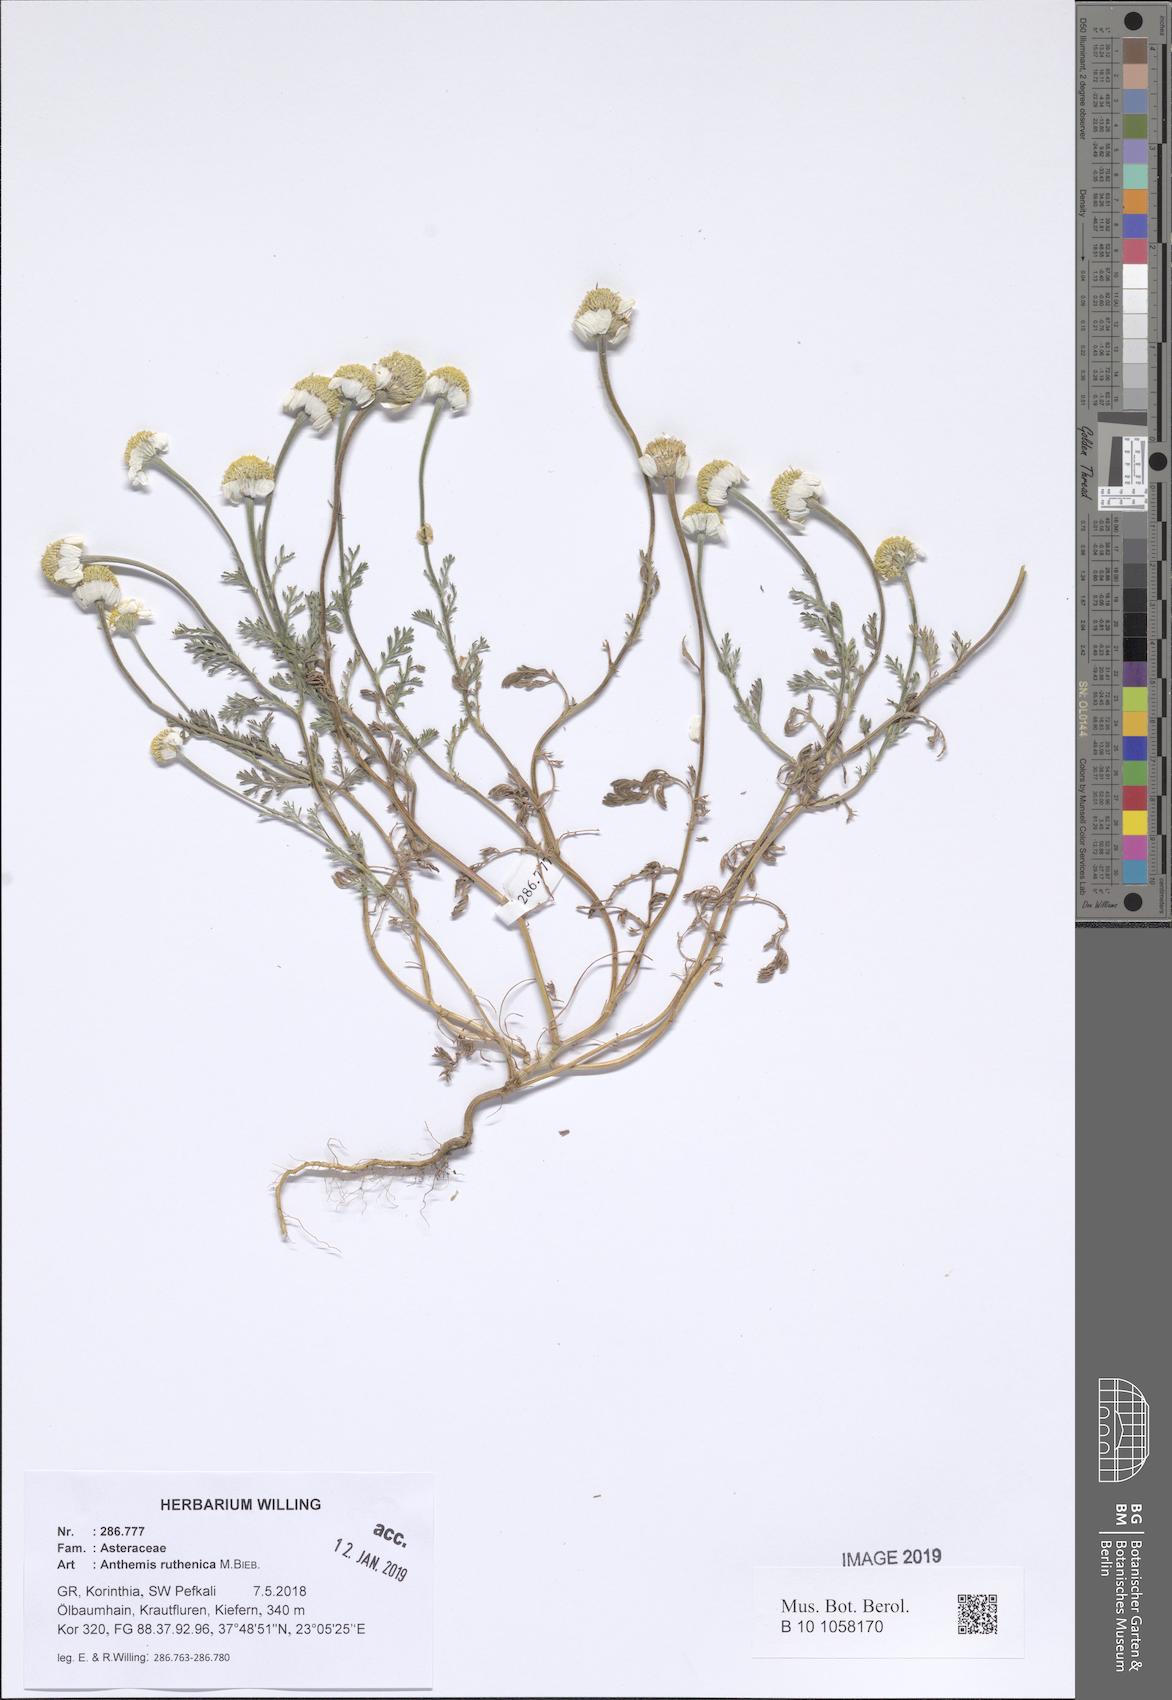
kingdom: Plantae
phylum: Tracheophyta
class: Magnoliopsida
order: Asterales
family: Asteraceae
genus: Anthemis
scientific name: Anthemis ruthenica
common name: Eastern chamomile
